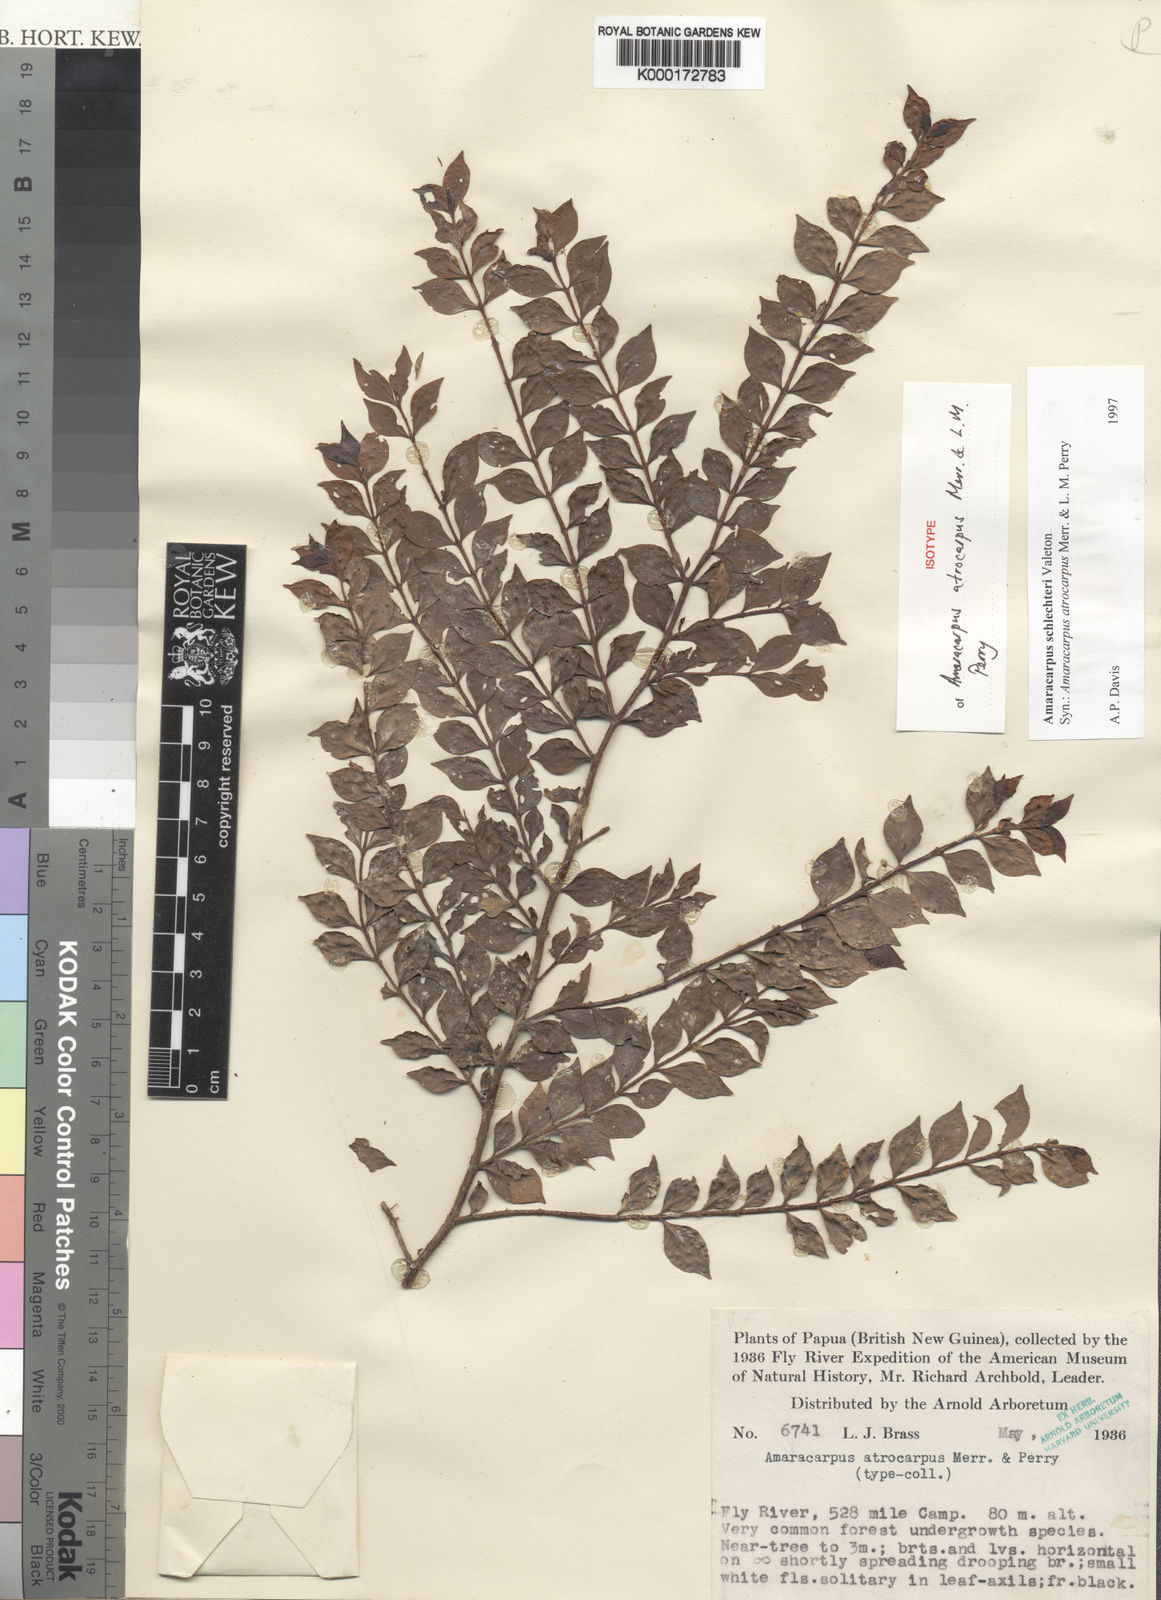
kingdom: Plantae
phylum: Tracheophyta
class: Magnoliopsida
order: Gentianales
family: Rubiaceae
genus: Amaracarpus
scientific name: Amaracarpus schlechteri
